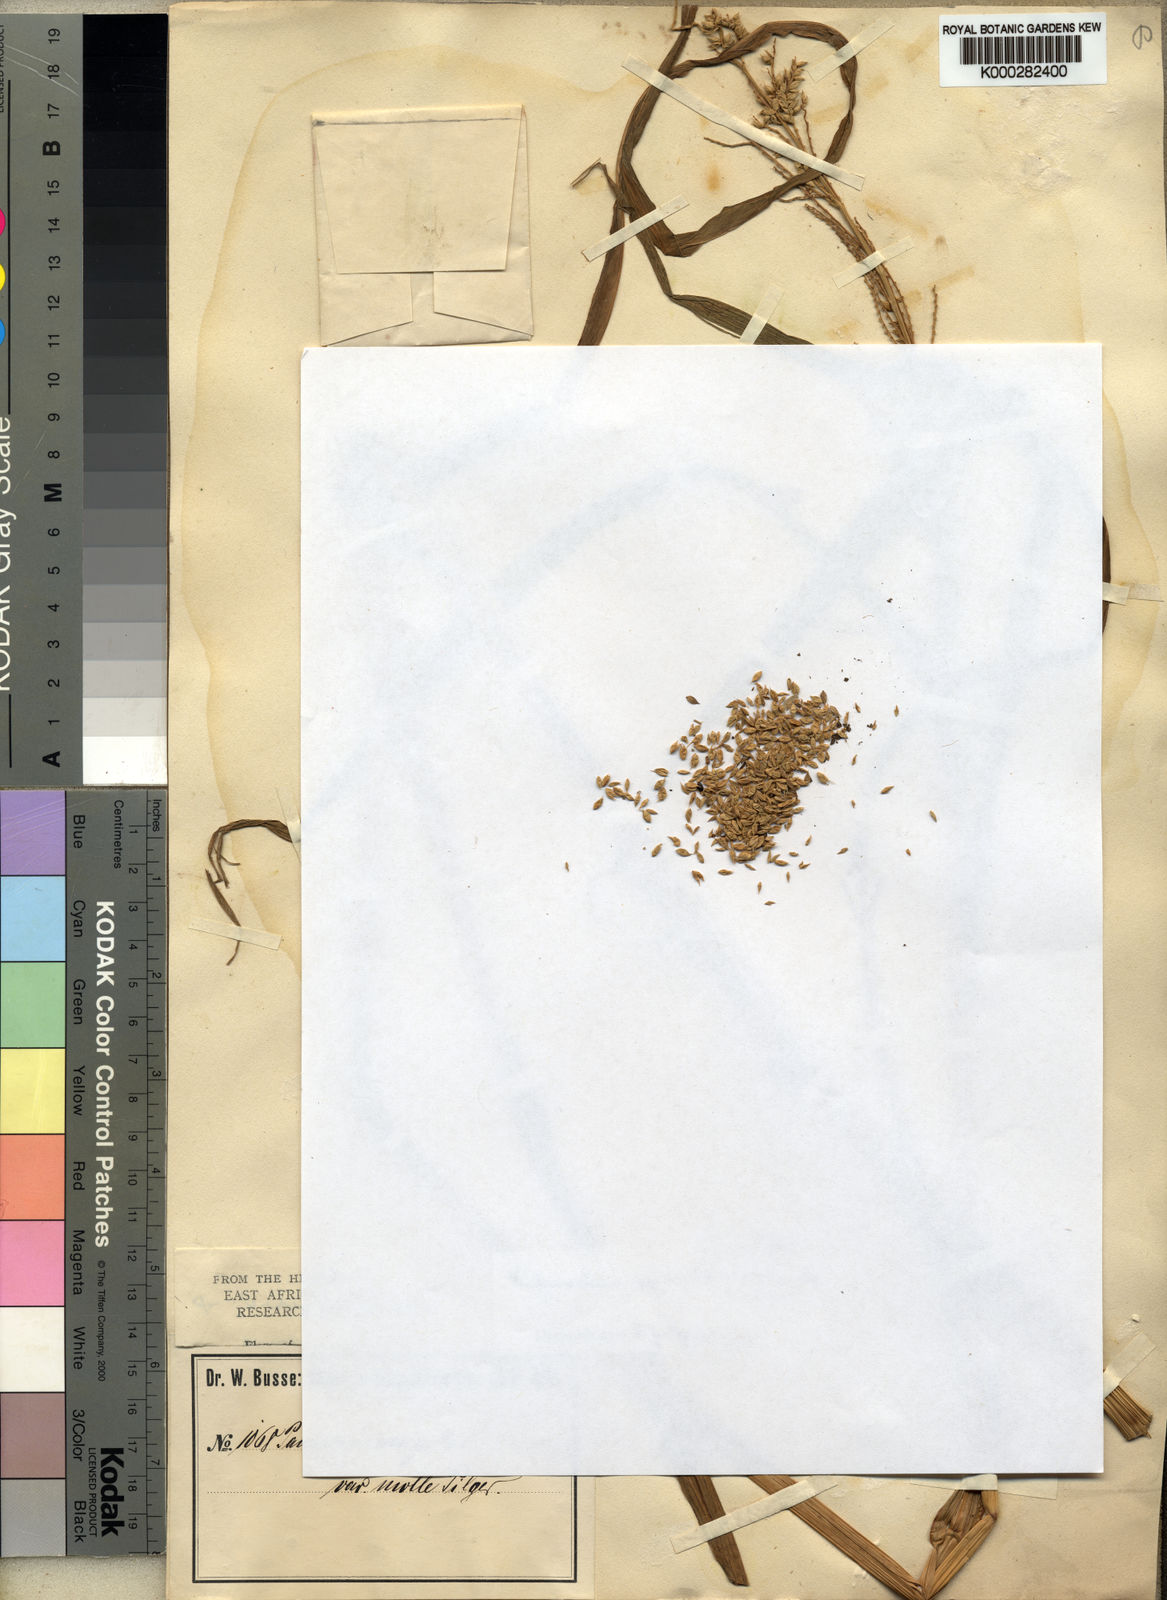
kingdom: Plantae
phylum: Tracheophyta
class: Liliopsida
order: Poales
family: Poaceae
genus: Echinochloa
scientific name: Echinochloa pyramidalis
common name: Antelope grass
